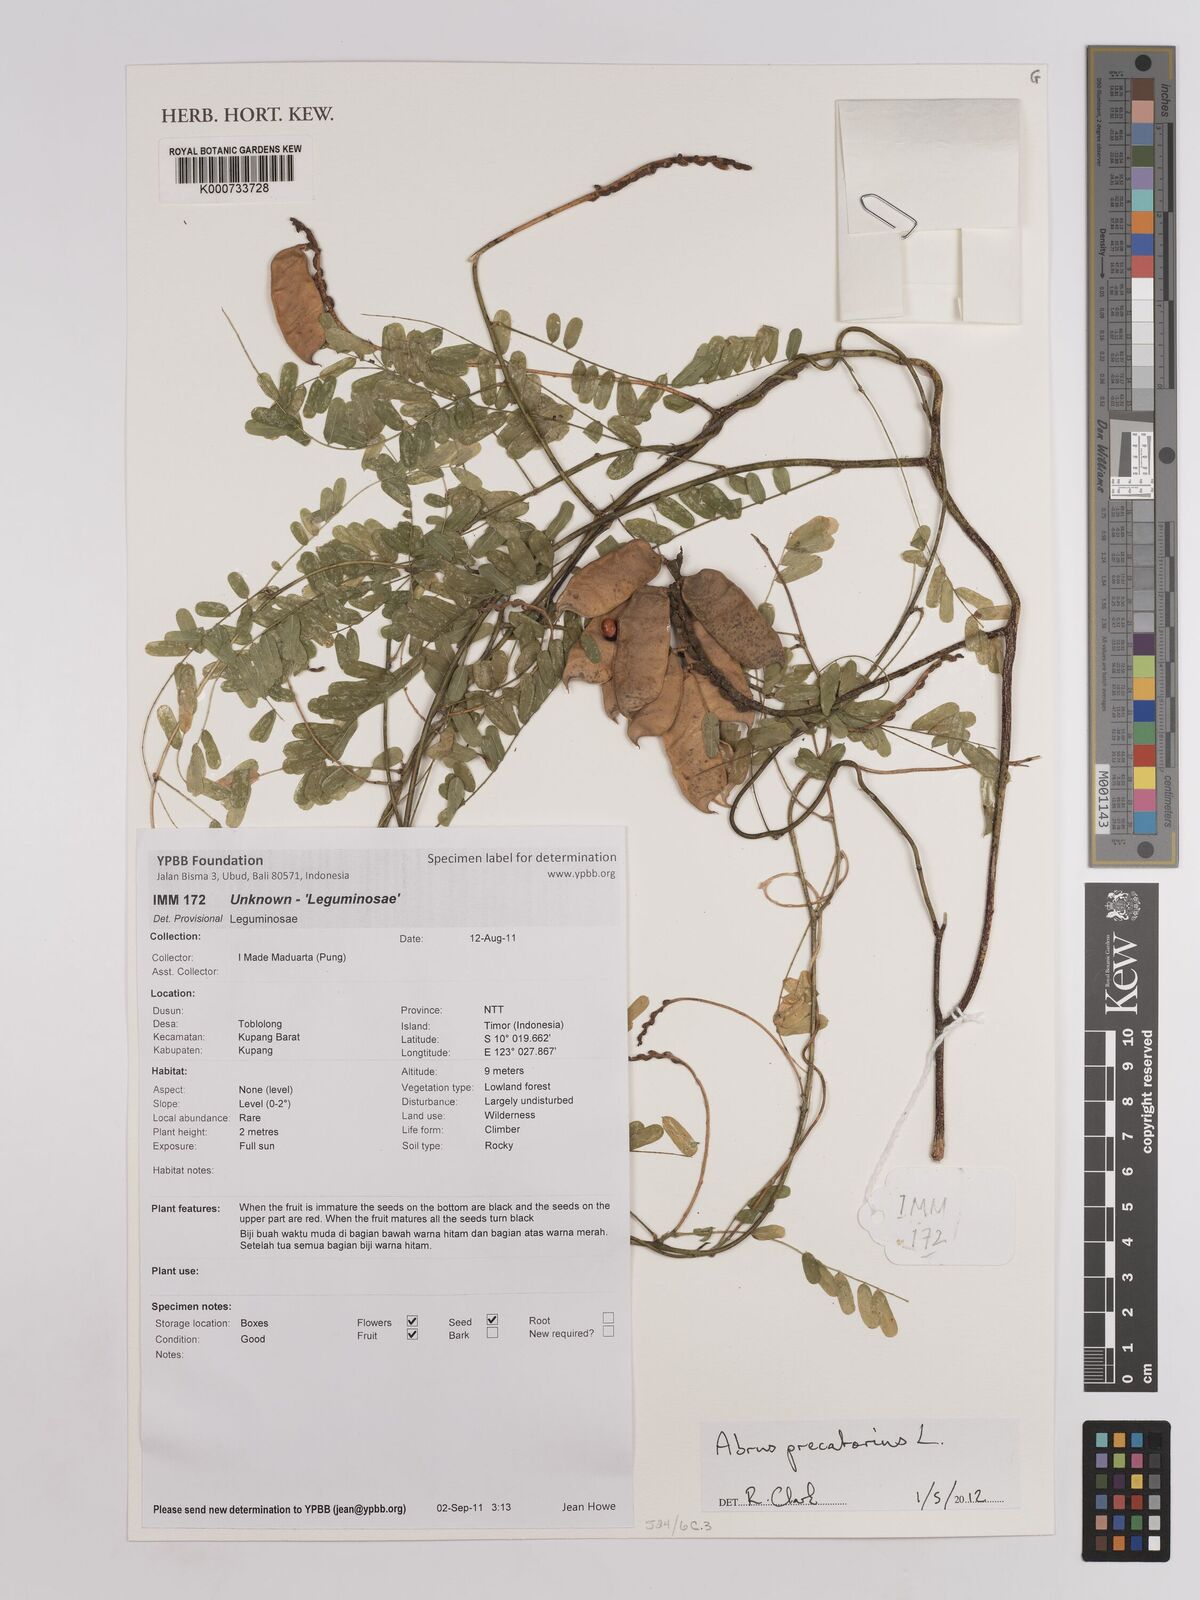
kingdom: Plantae
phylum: Tracheophyta
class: Magnoliopsida
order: Fabales
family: Fabaceae
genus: Abrus
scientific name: Abrus precatorius
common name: Rosarypea
